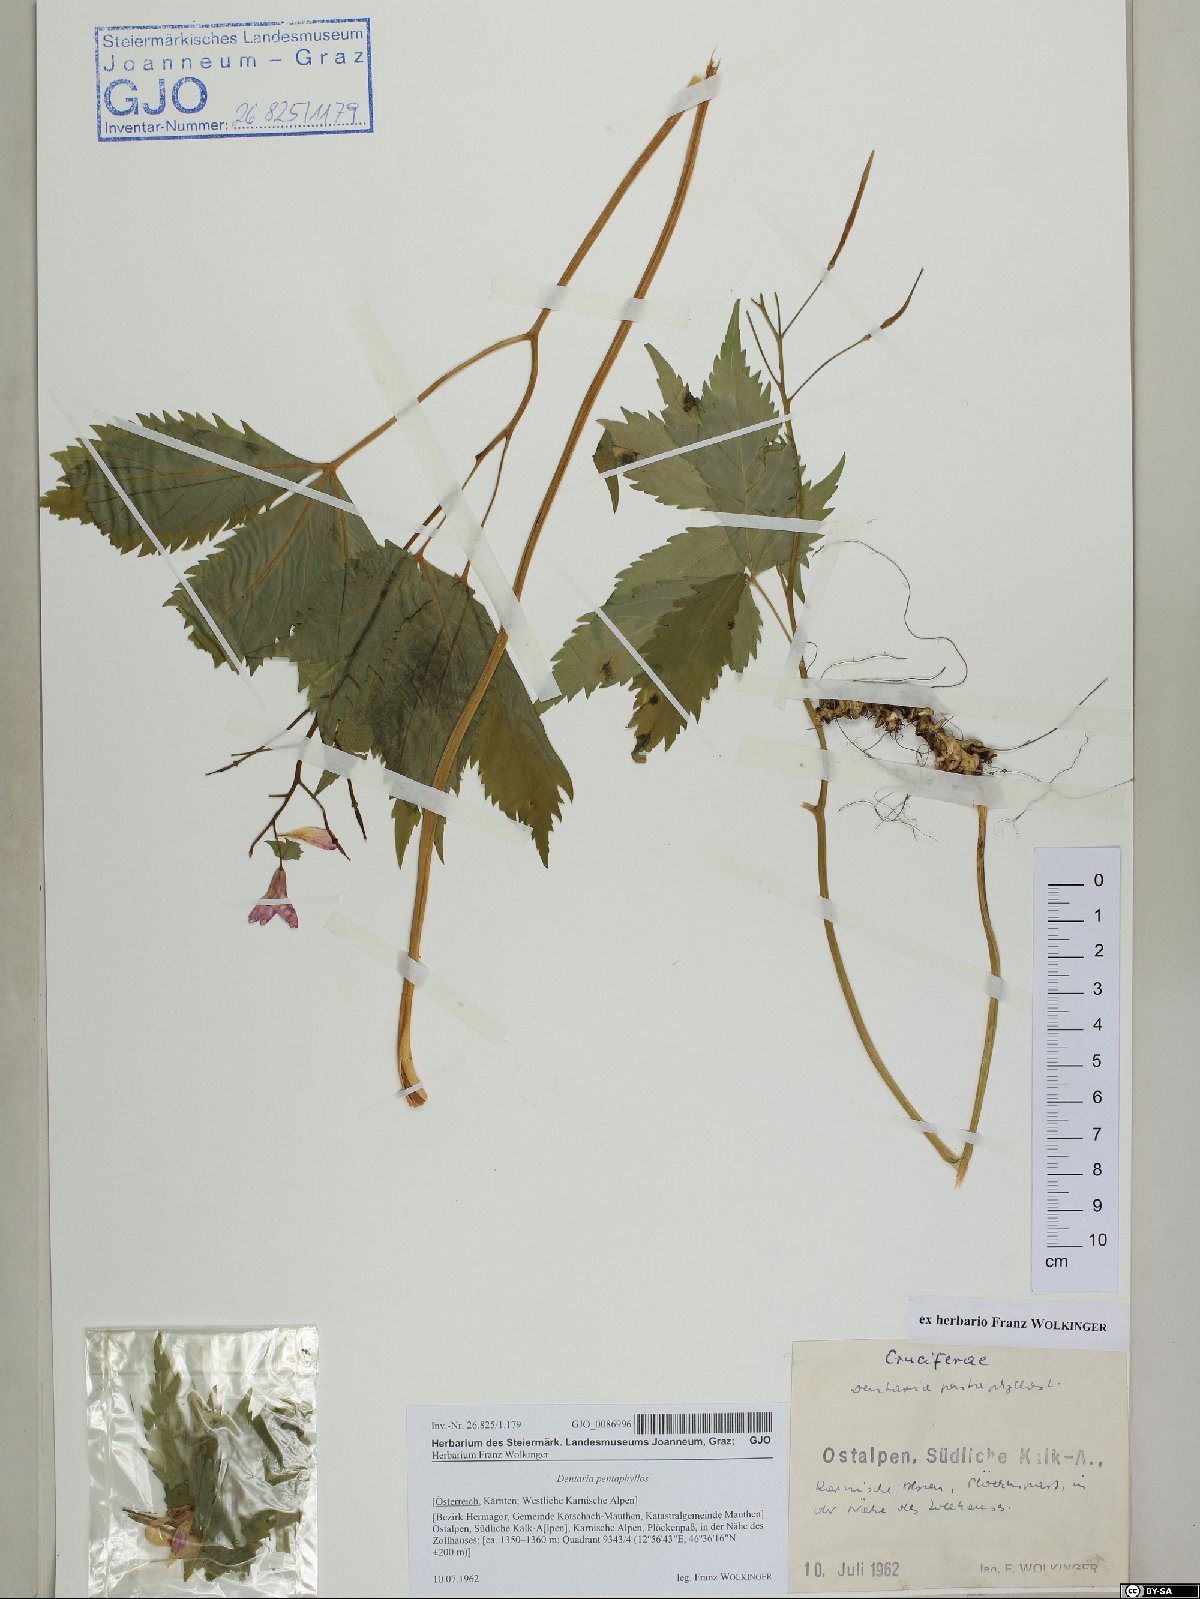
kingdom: Plantae
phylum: Tracheophyta
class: Magnoliopsida
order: Brassicales
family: Brassicaceae
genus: Cardamine
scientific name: Cardamine pentaphyllos
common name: Five-leaflet bitter-cress
